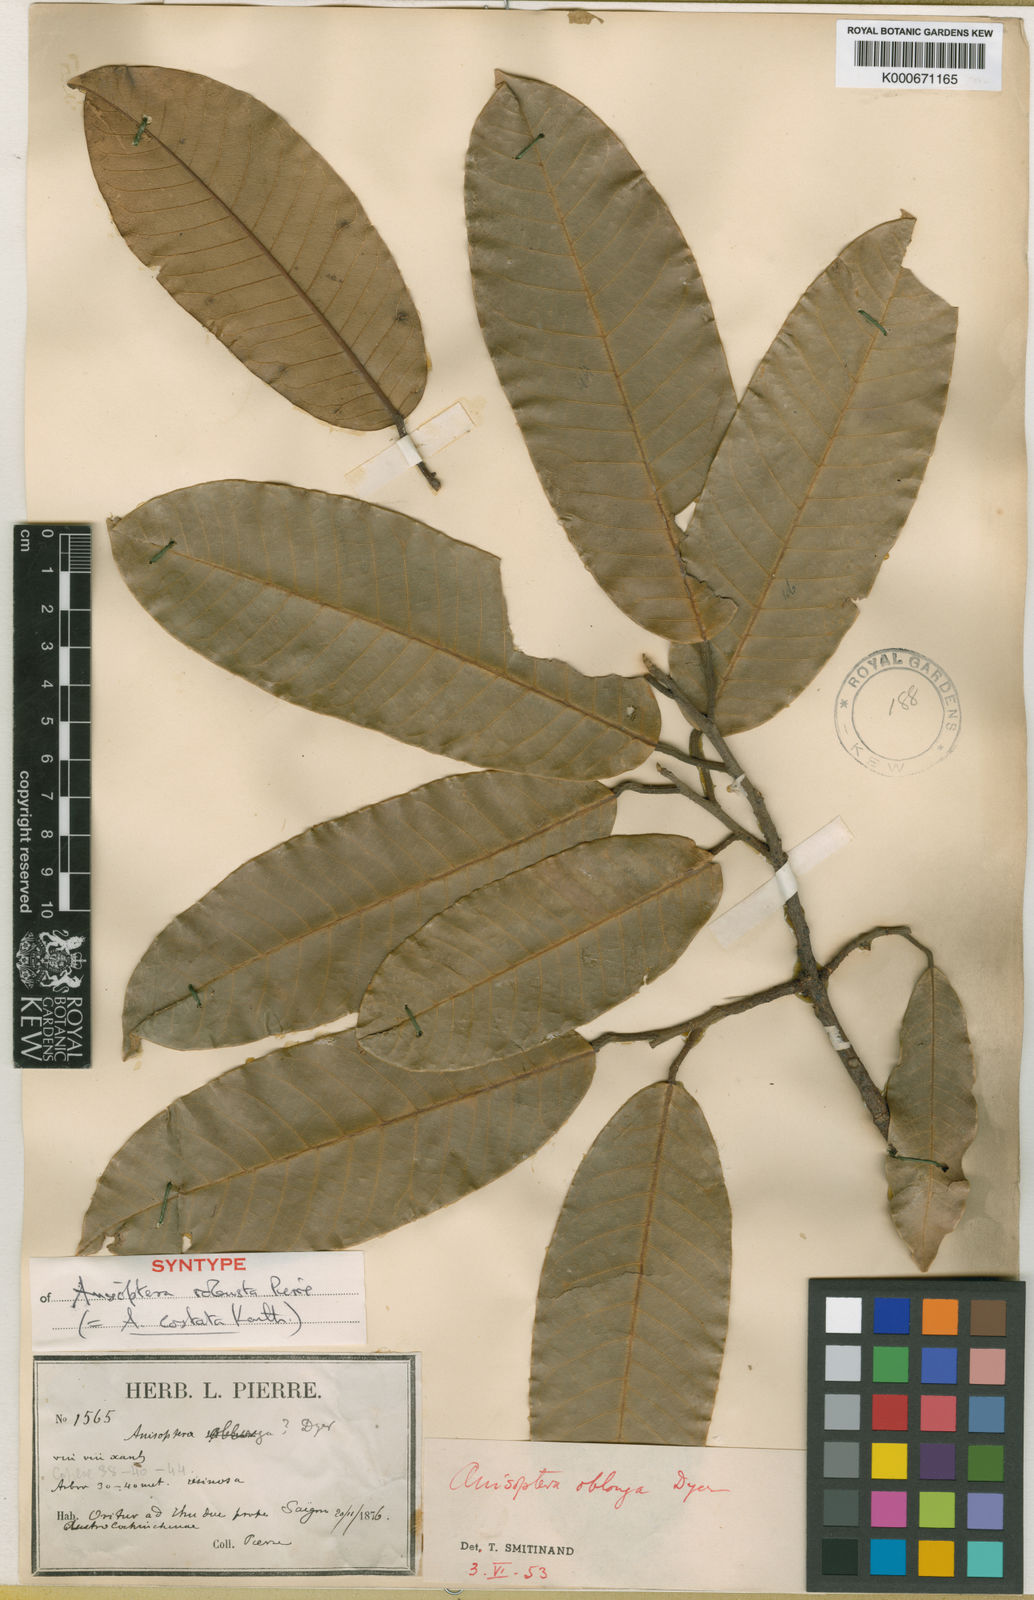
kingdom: Plantae
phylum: Tracheophyta
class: Magnoliopsida
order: Malvales
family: Dipterocarpaceae
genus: Anisoptera
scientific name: Anisoptera costata
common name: Mersawa
